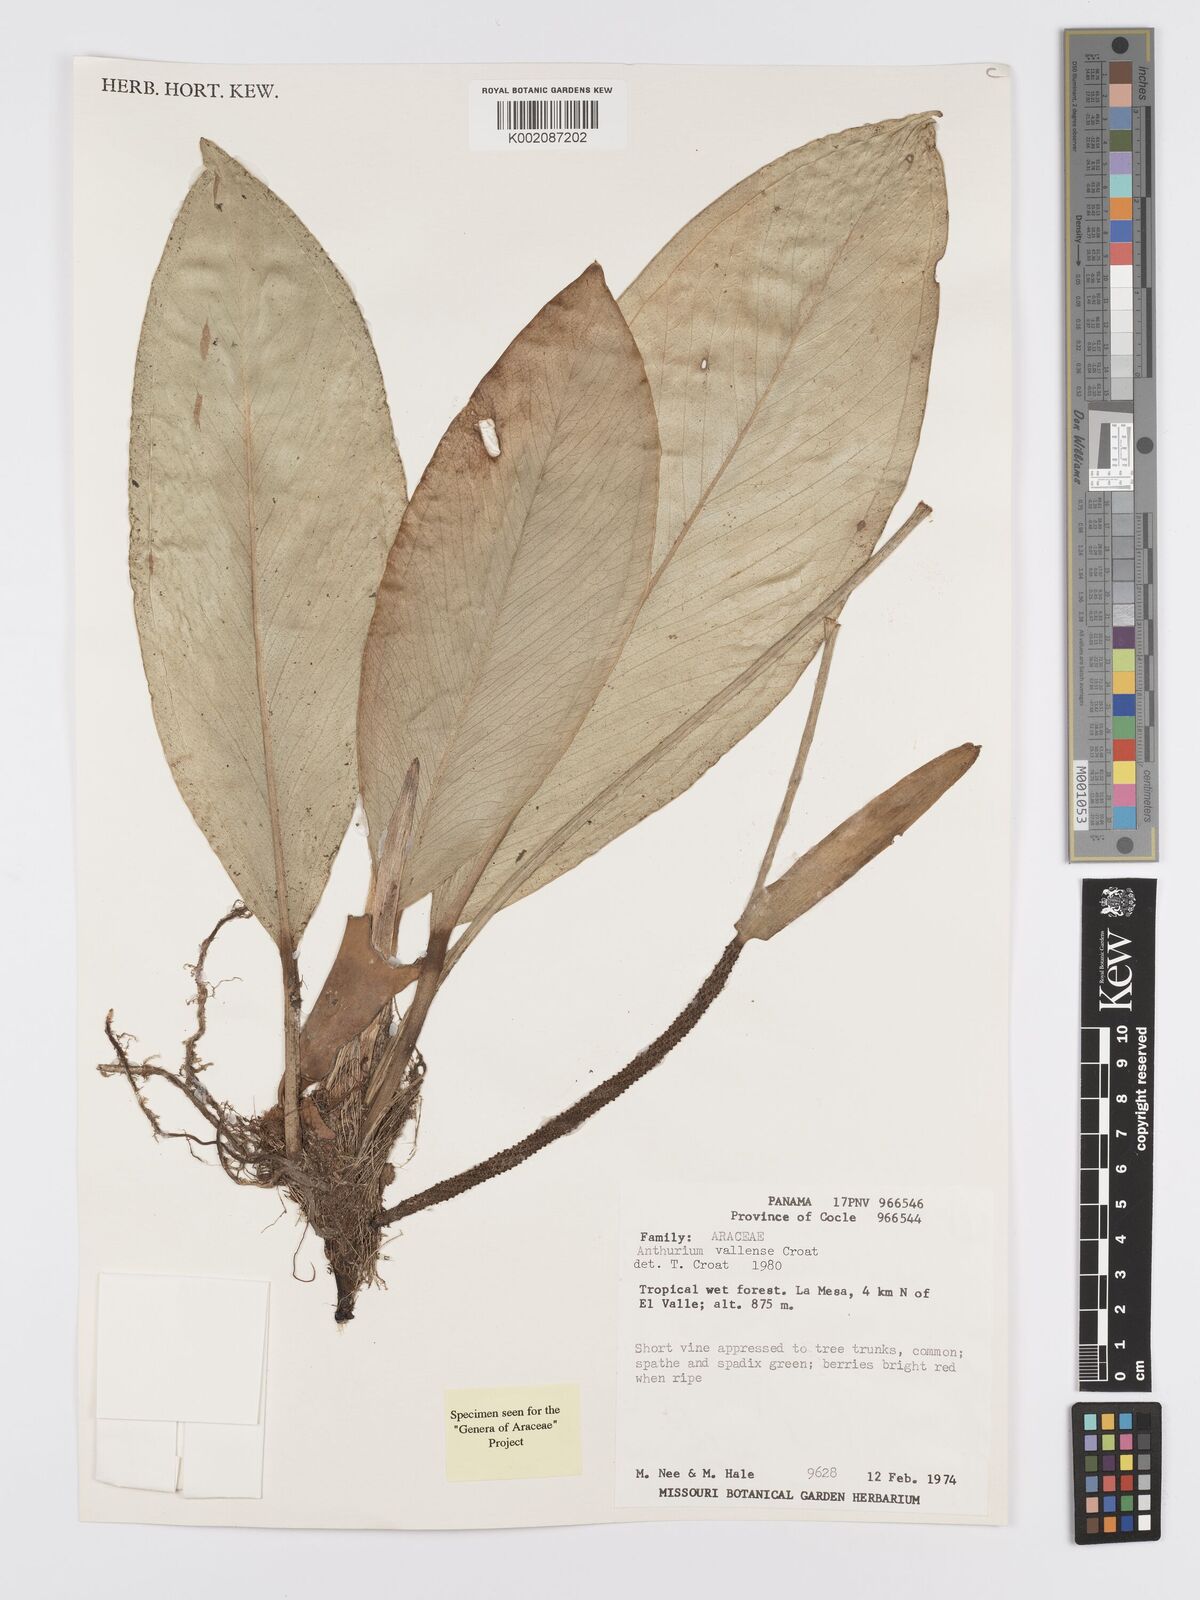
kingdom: Plantae
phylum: Tracheophyta
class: Liliopsida
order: Alismatales
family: Araceae
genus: Anthurium
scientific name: Anthurium vallense
